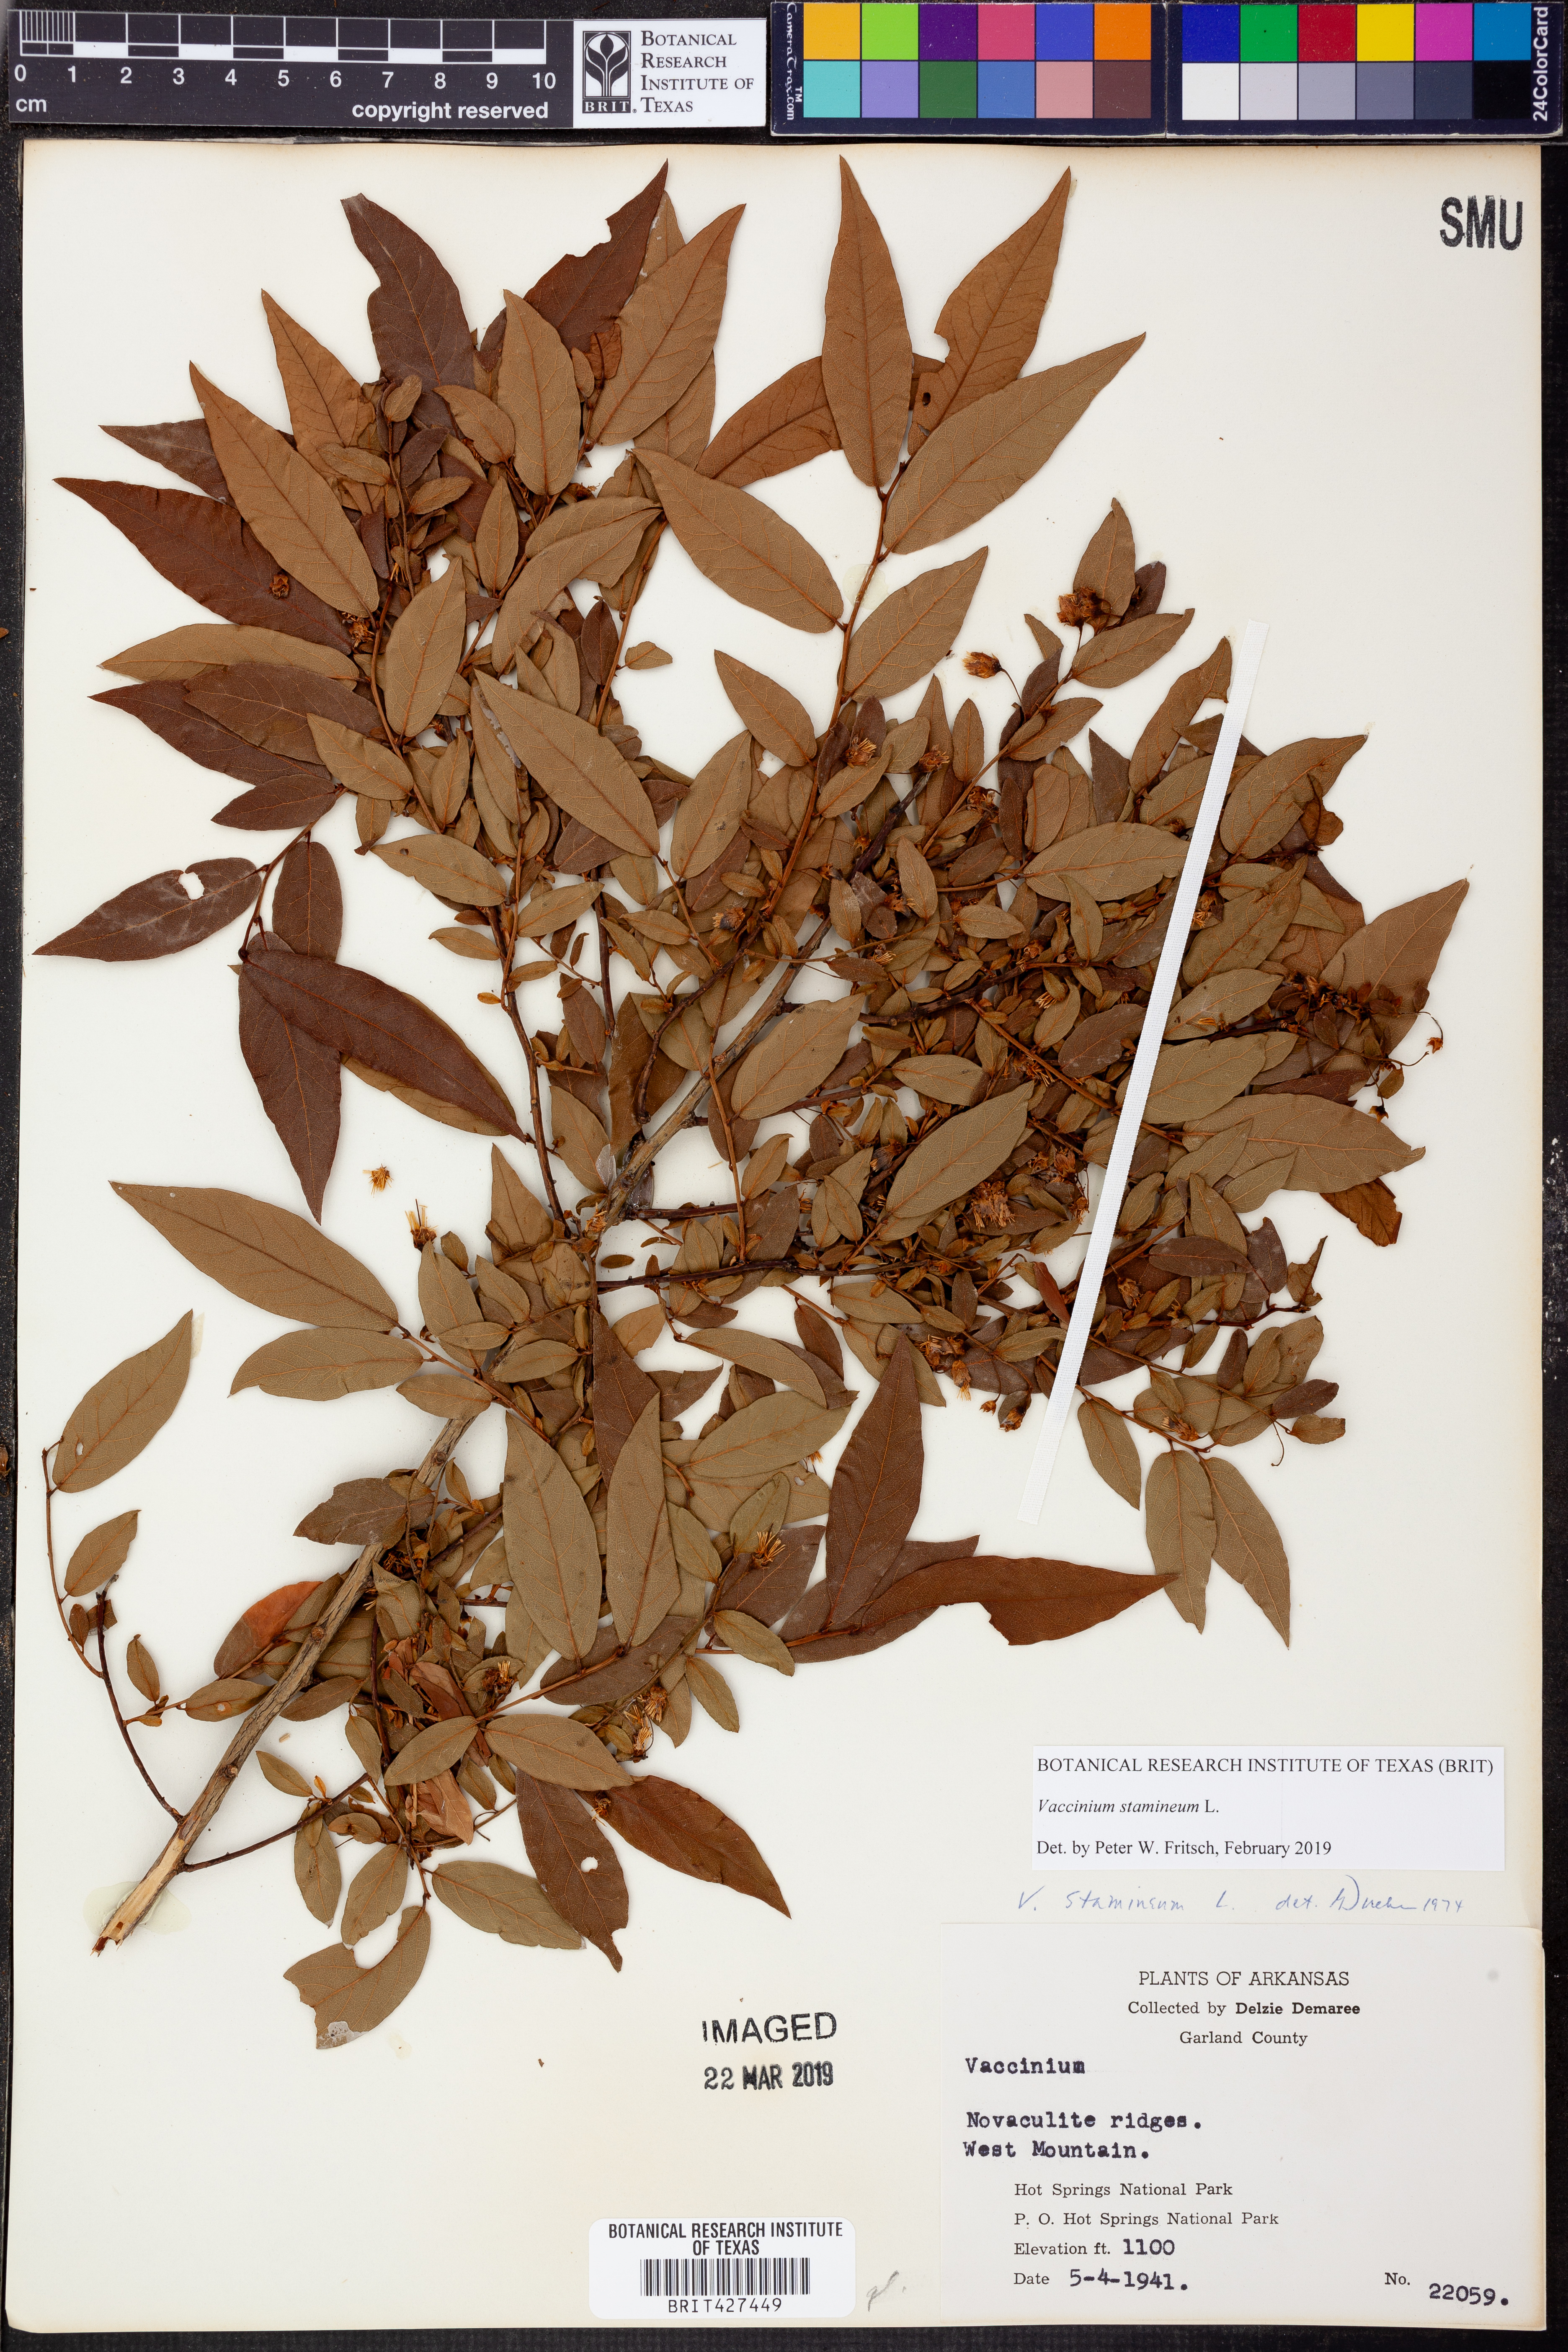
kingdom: Plantae
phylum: Tracheophyta
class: Magnoliopsida
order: Ericales
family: Ericaceae
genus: Vaccinium
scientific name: Vaccinium stamineum
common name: Deerberry
